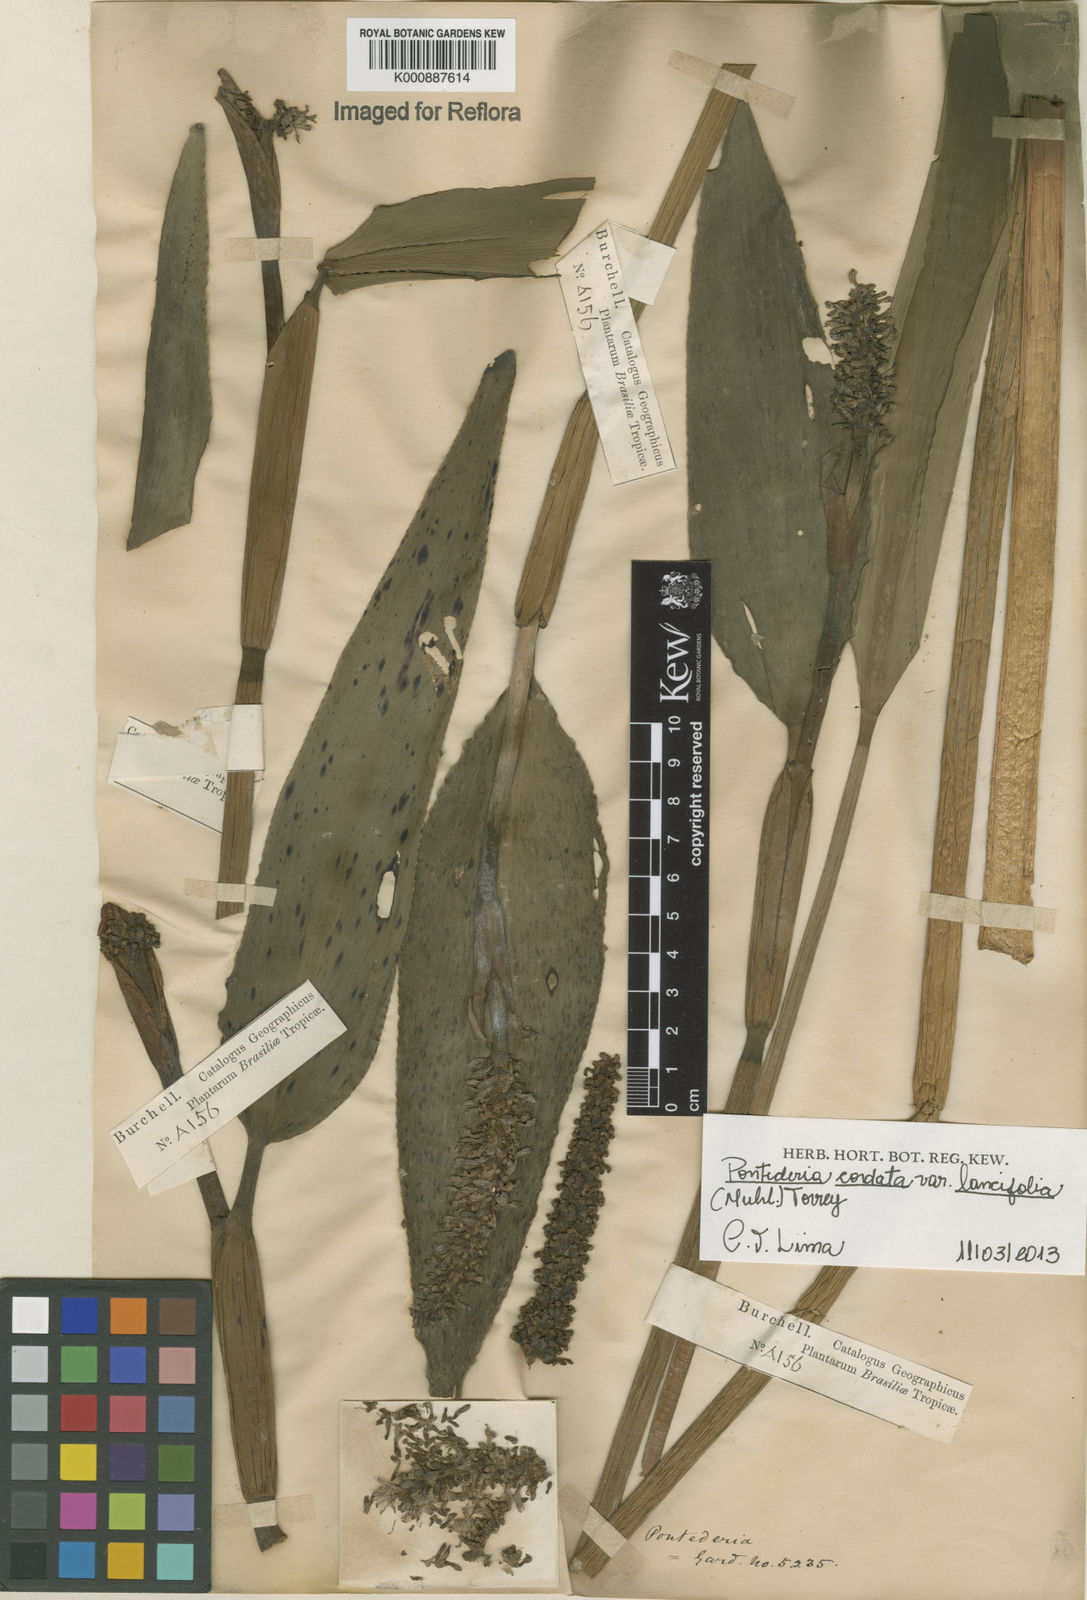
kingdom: Plantae
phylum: Tracheophyta
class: Liliopsida
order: Commelinales
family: Pontederiaceae
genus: Pontederia
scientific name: Pontederia cordata
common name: Pickerelweed
